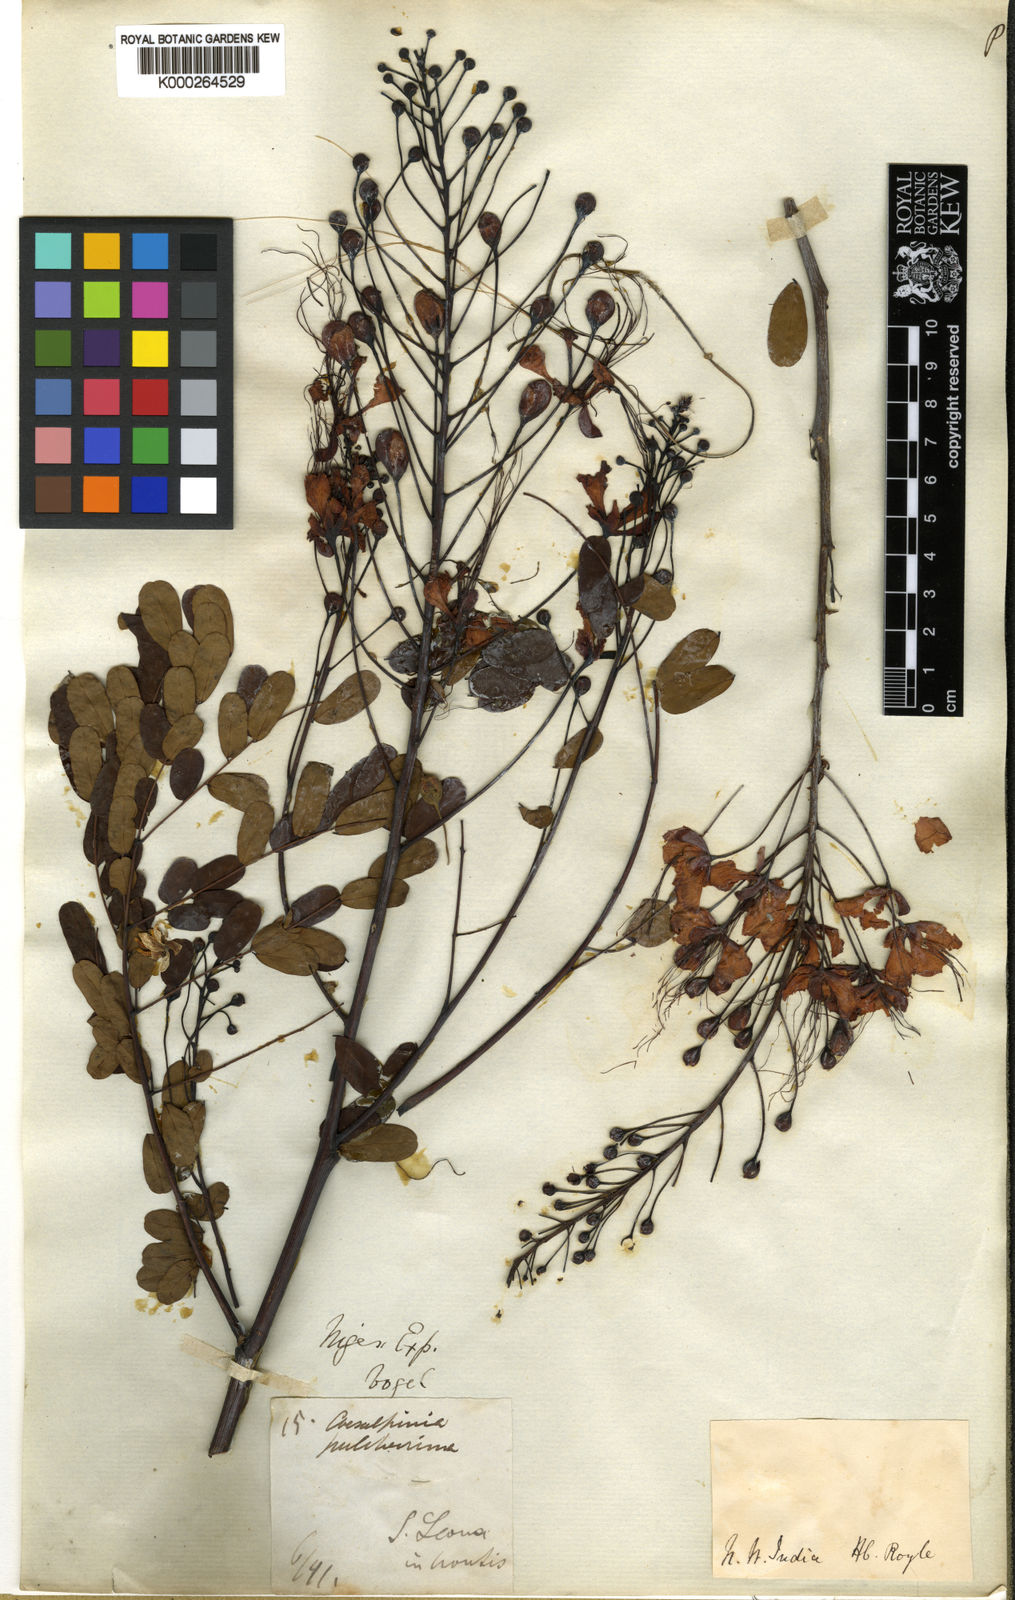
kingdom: Plantae
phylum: Tracheophyta
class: Magnoliopsida
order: Fabales
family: Fabaceae
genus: Caesalpinia
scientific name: Caesalpinia pulcherrima
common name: Pride-of-barbados
